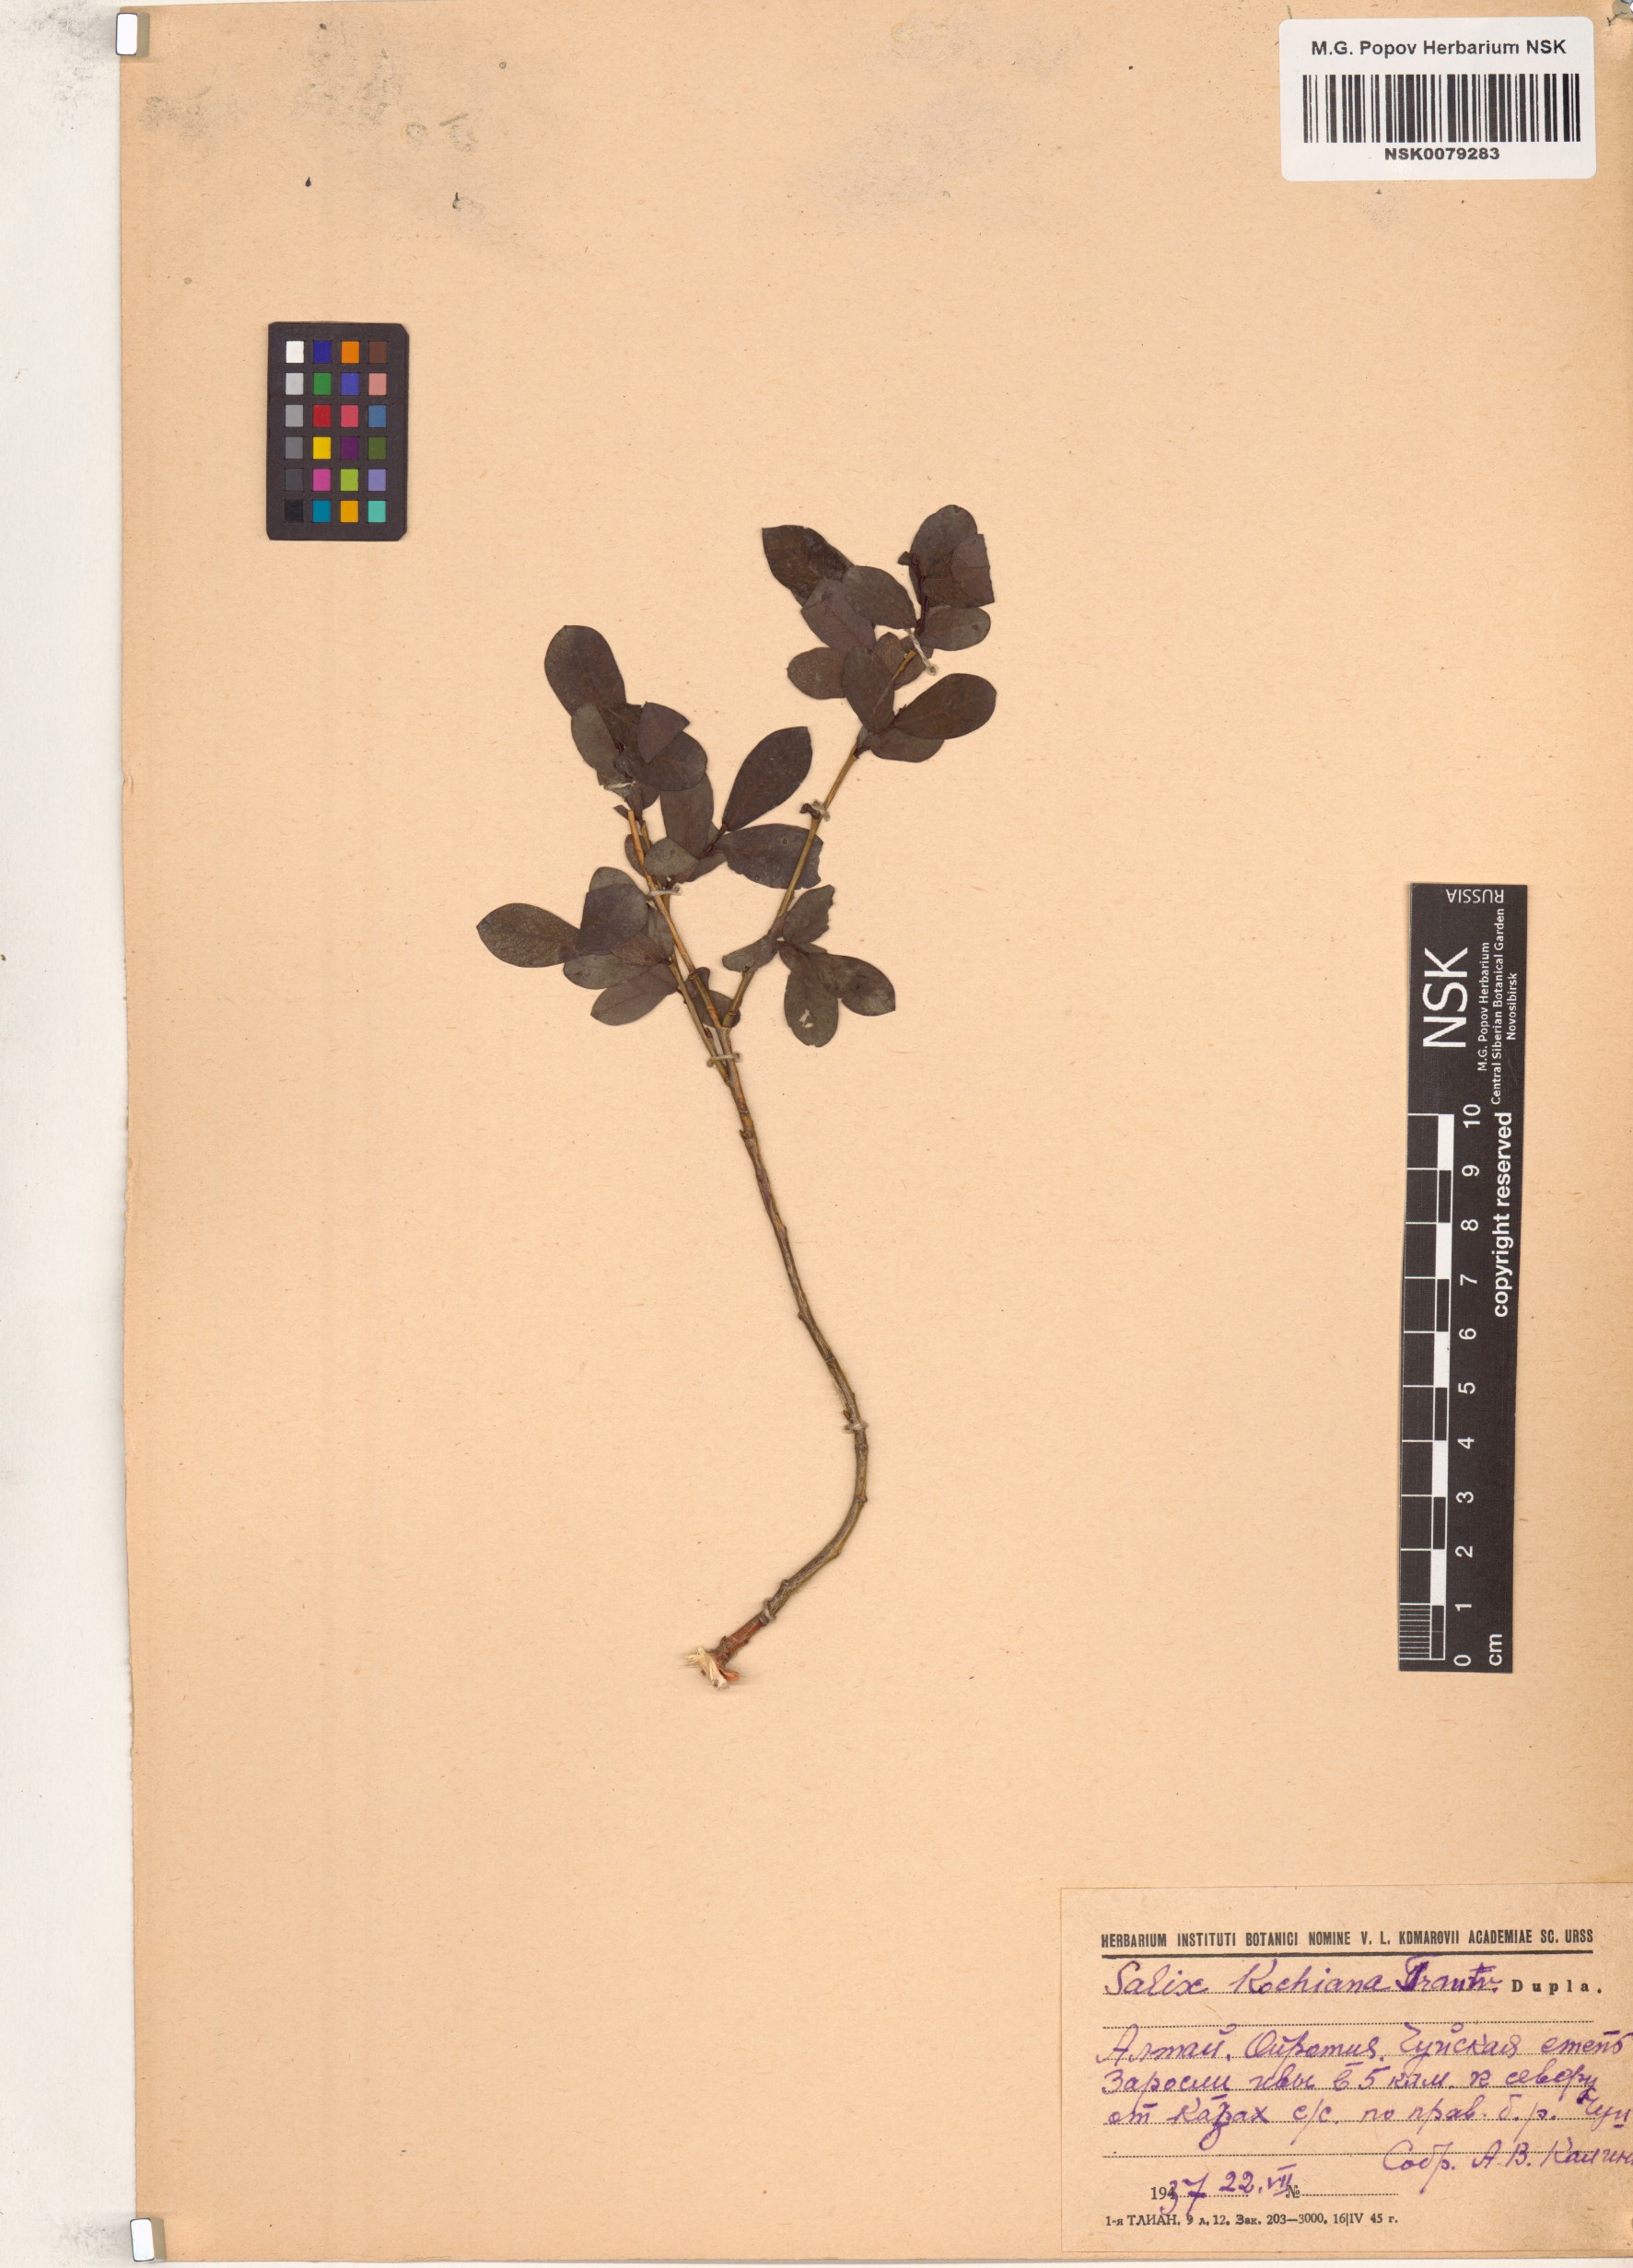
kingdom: Plantae
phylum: Tracheophyta
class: Magnoliopsida
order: Malpighiales
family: Salicaceae
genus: Salix
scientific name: Salix kochiana
